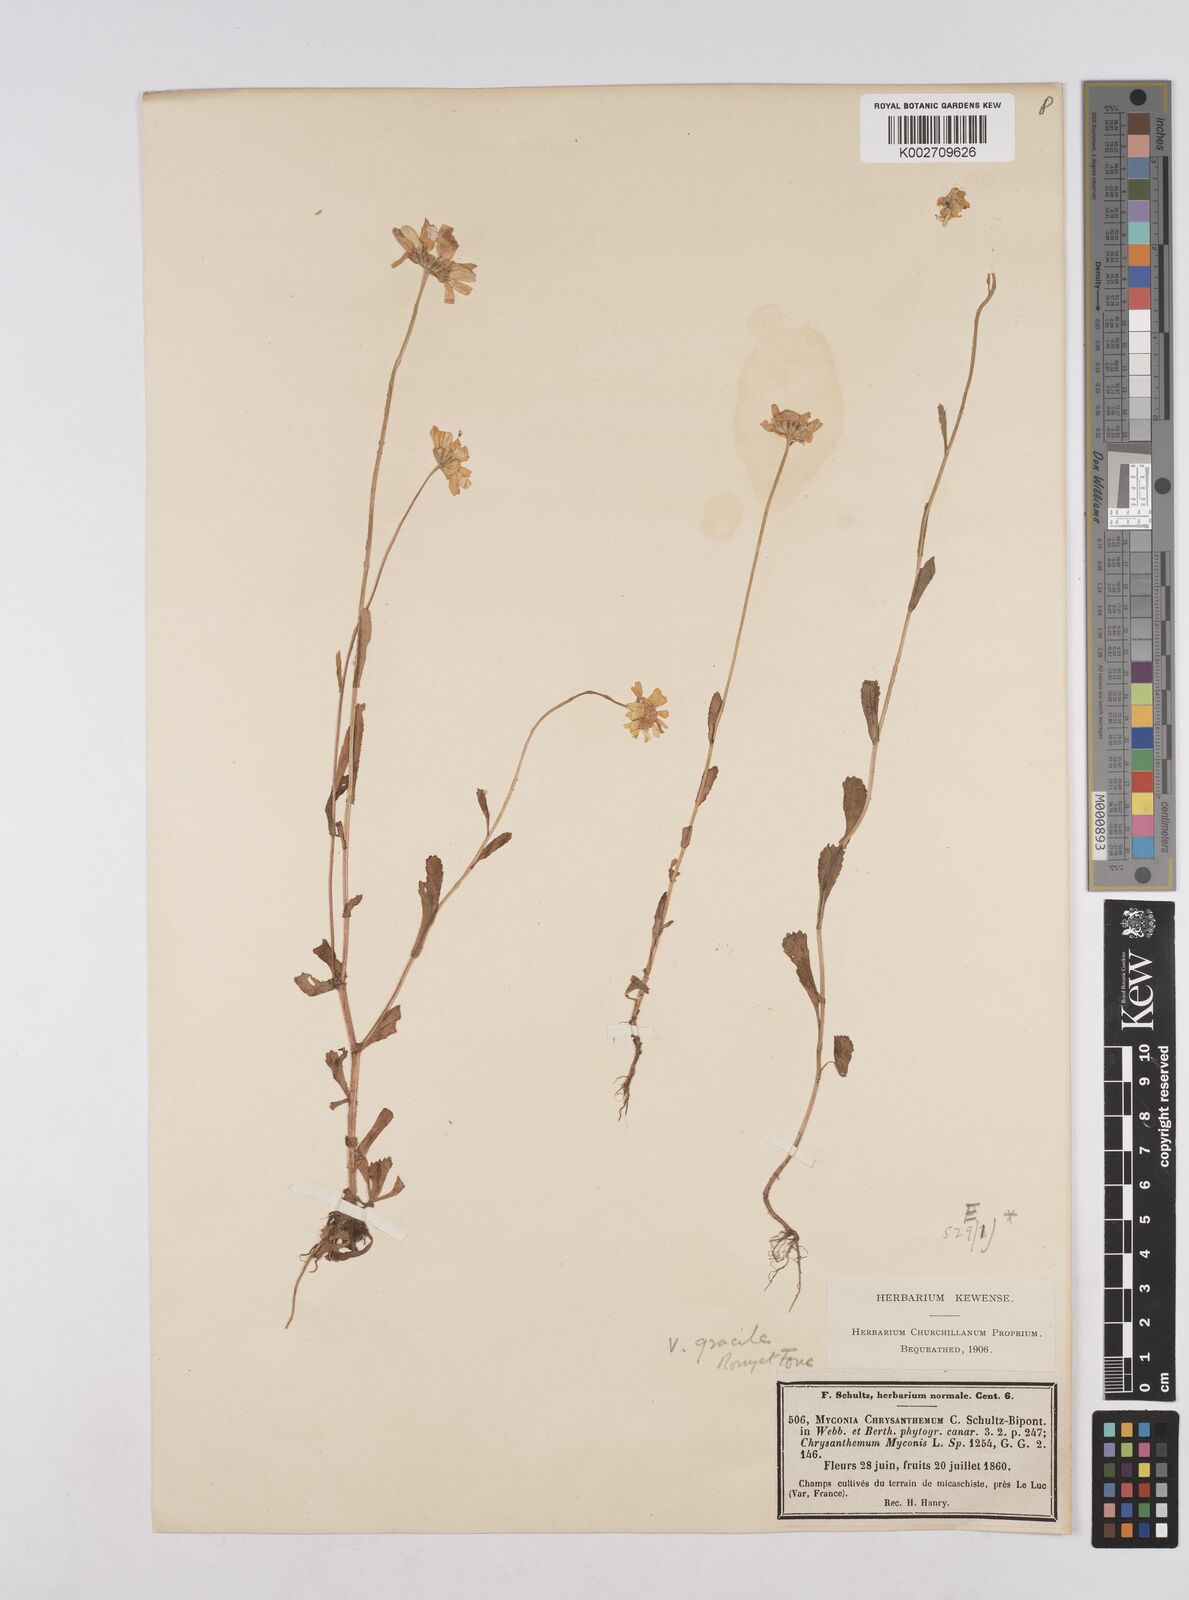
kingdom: Plantae
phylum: Tracheophyta
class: Magnoliopsida
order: Asterales
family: Asteraceae
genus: Coleostephus
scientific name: Coleostephus myconis
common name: Mediterranean marigold
